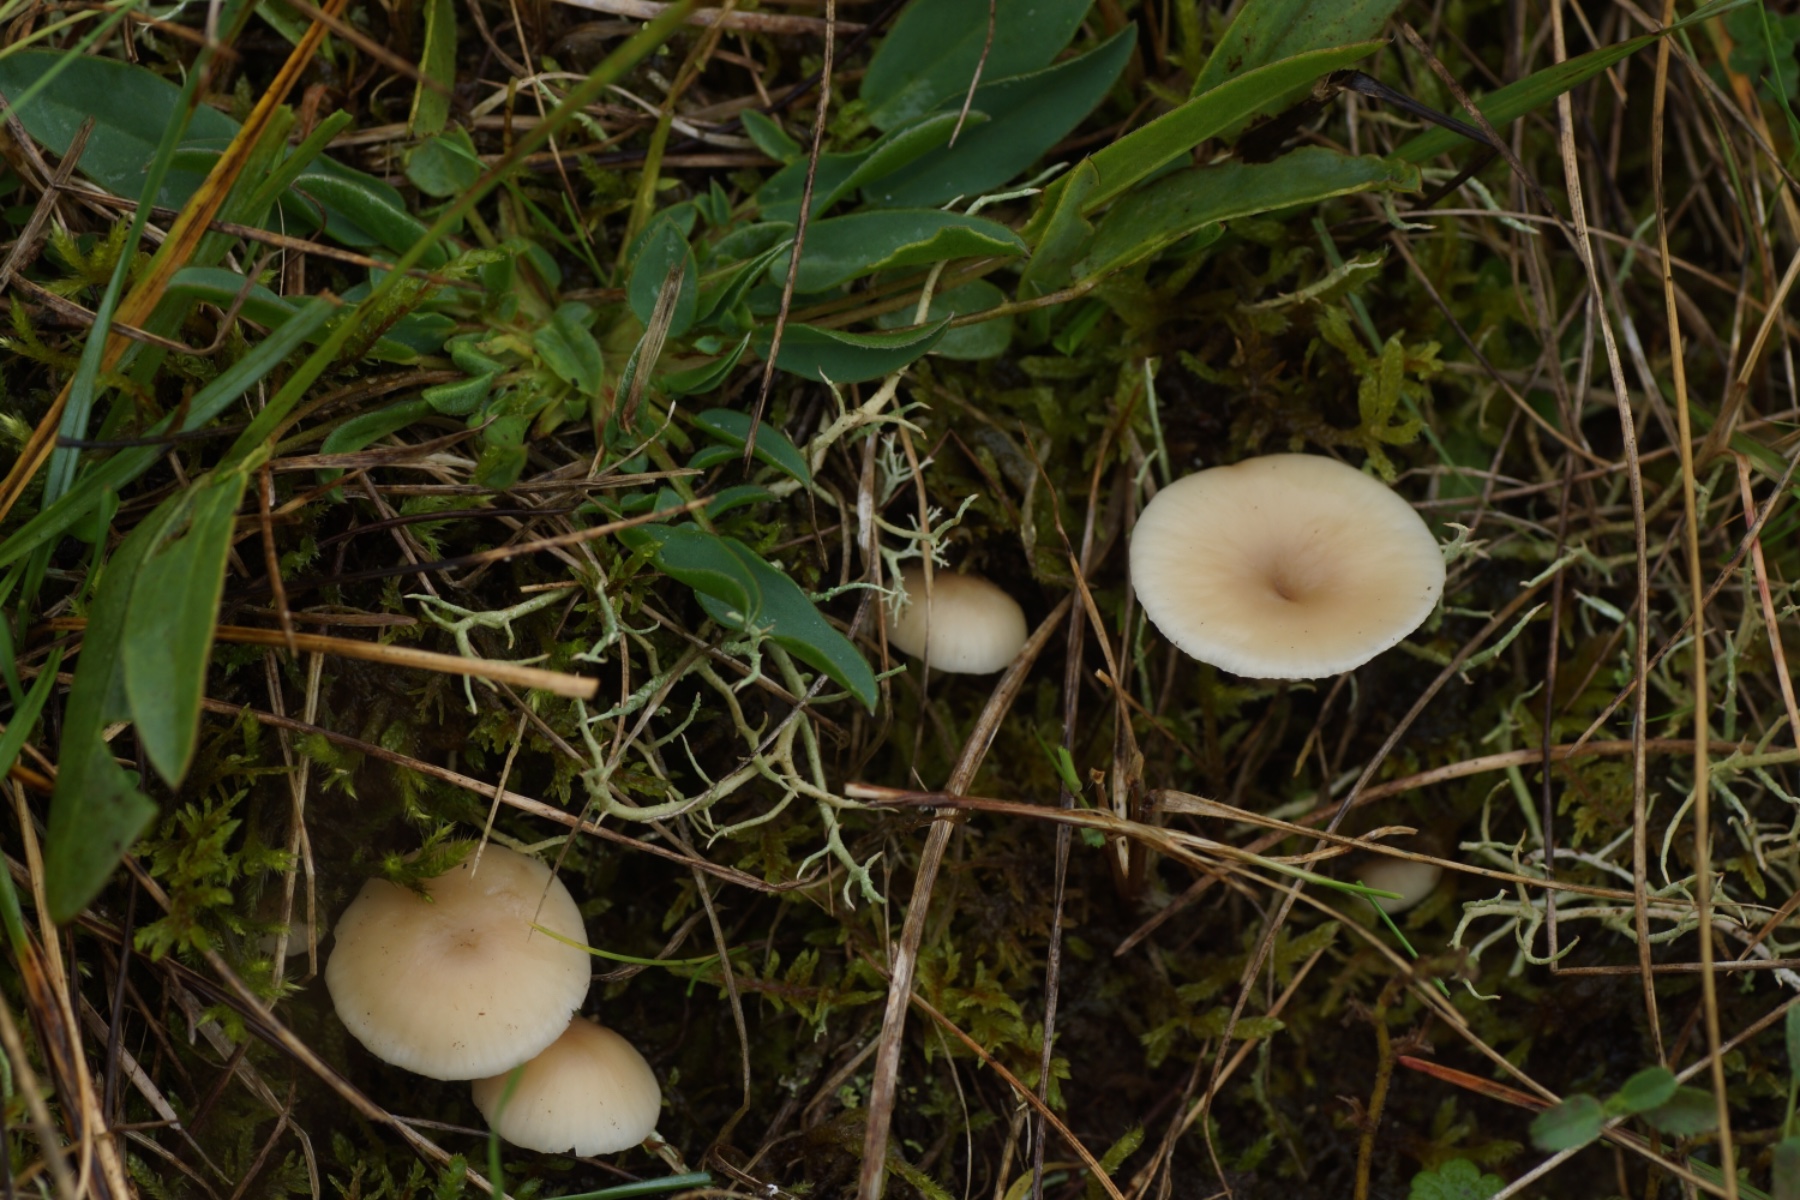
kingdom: Fungi
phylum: Basidiomycota
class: Agaricomycetes
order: Agaricales
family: Hygrophoraceae
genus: Cuphophyllus
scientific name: Cuphophyllus
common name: vokshat
